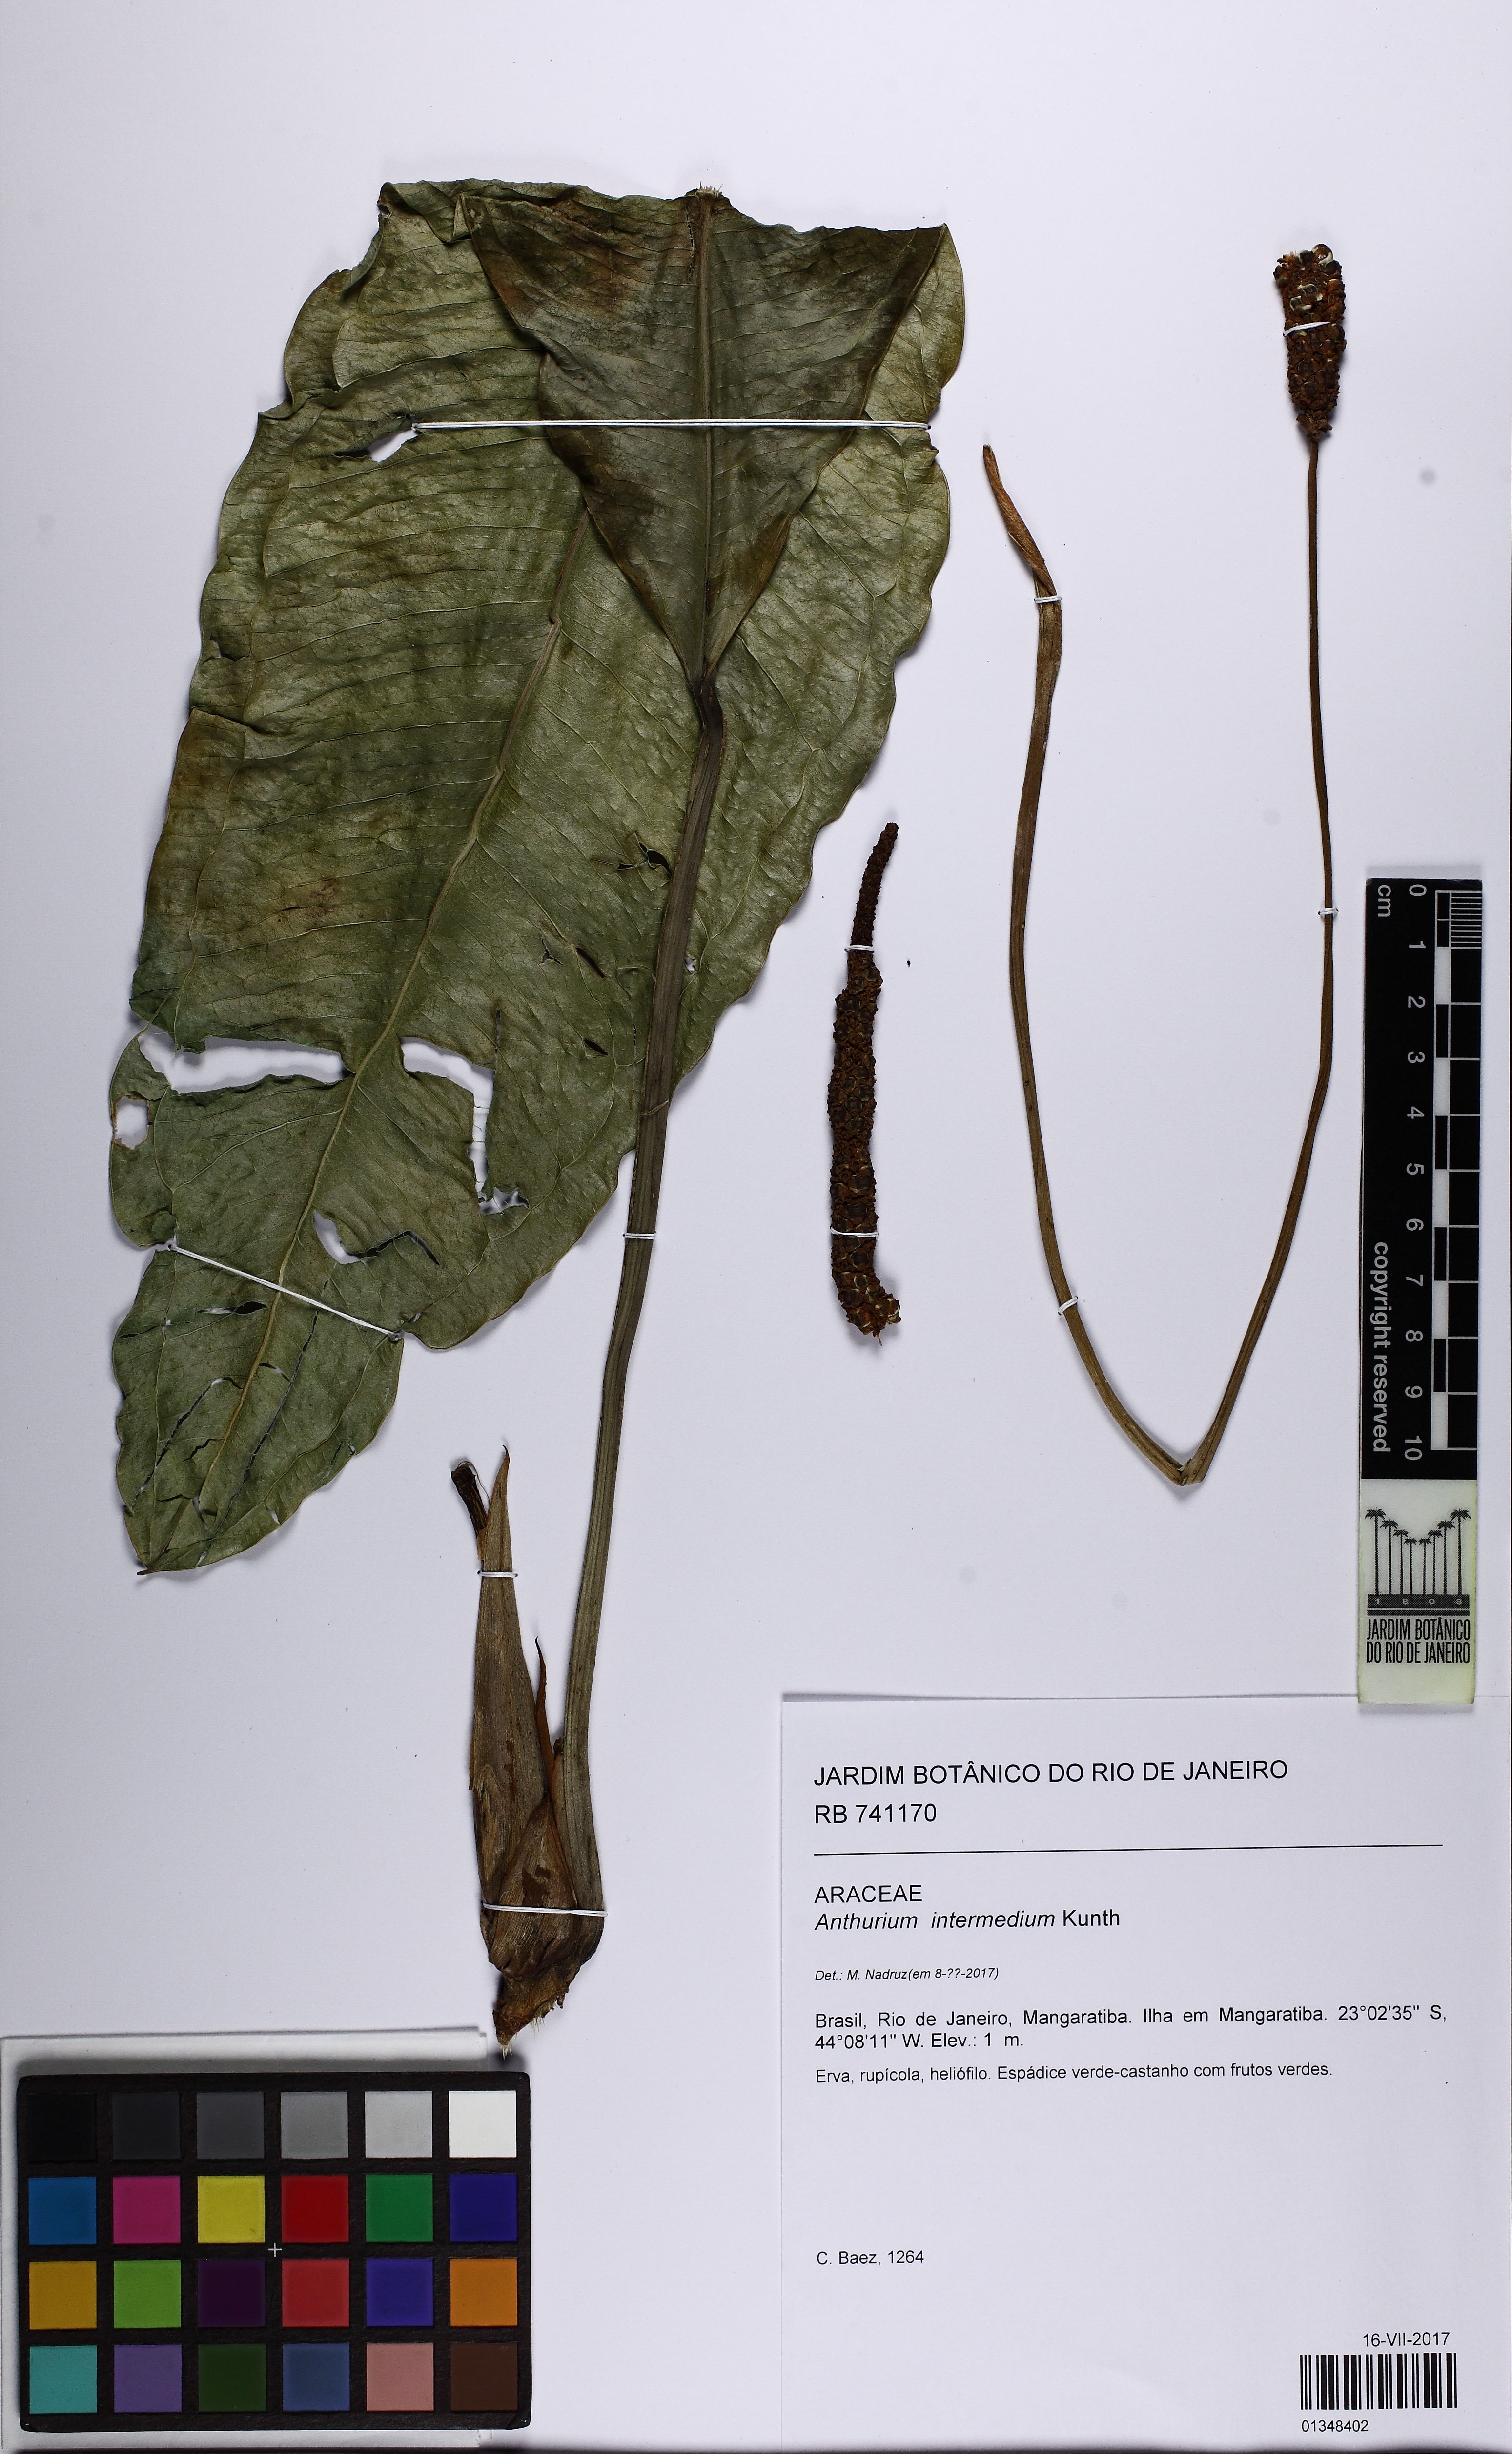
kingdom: Plantae
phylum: Tracheophyta
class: Liliopsida
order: Alismatales
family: Araceae
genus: Anthurium
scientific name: Anthurium intermedium
